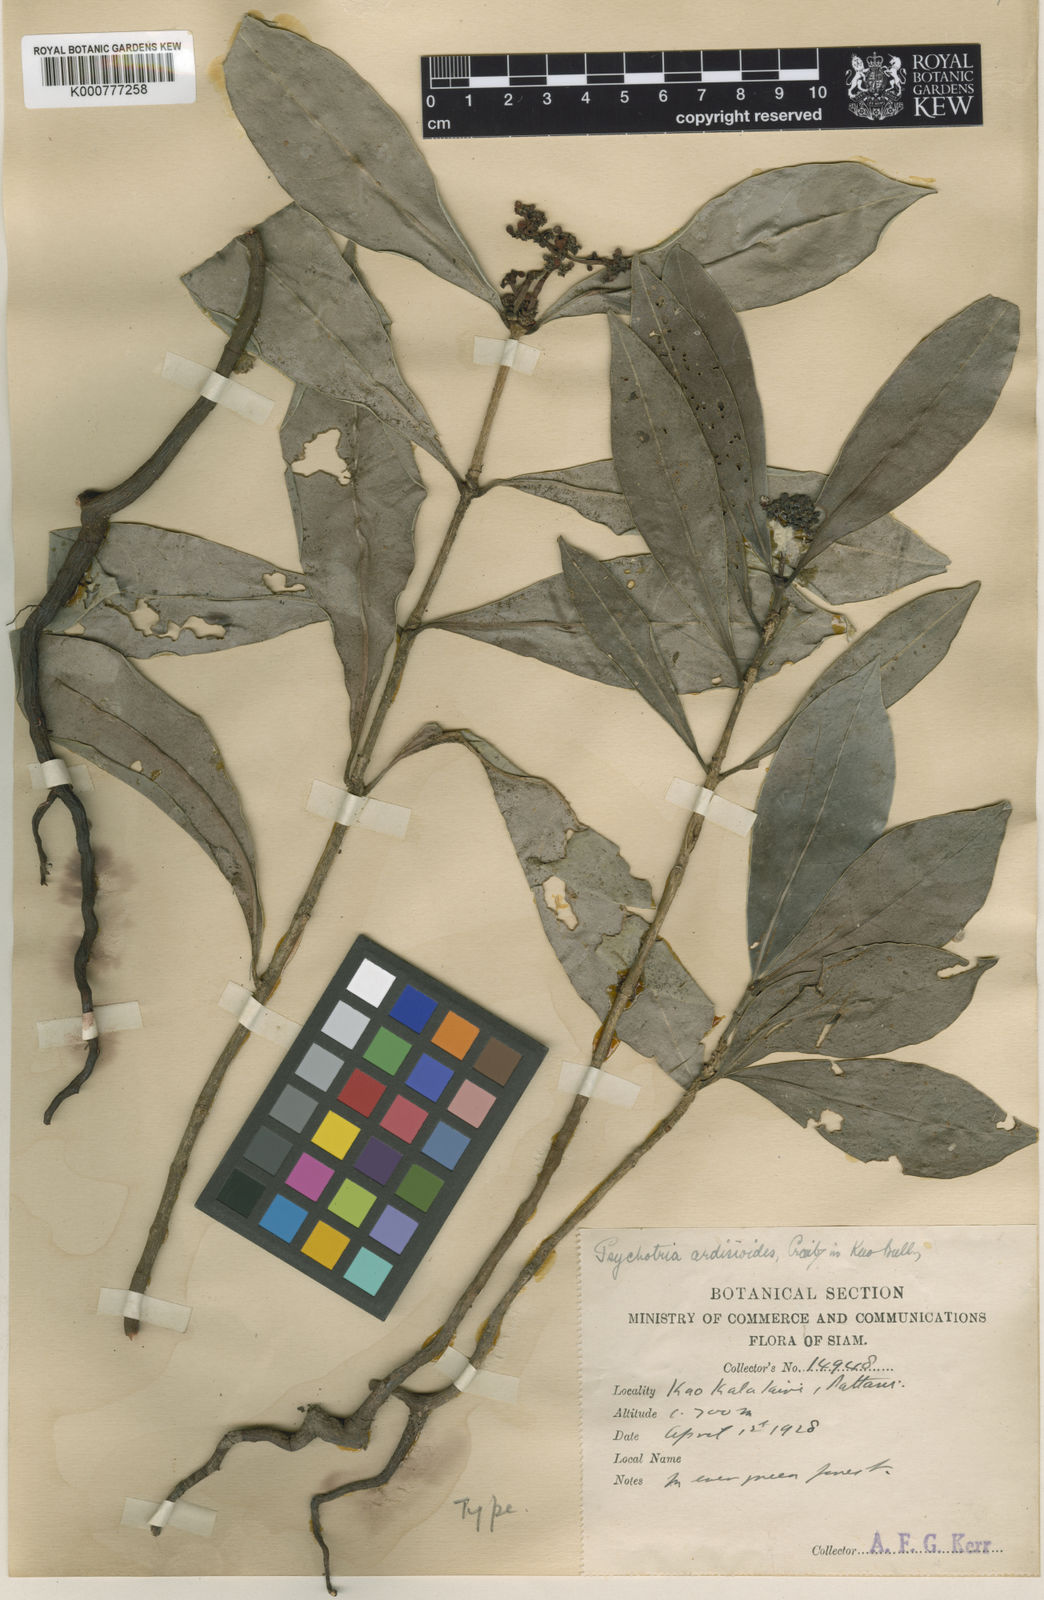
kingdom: Plantae
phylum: Tracheophyta
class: Magnoliopsida
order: Gentianales
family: Rubiaceae
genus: Psychotria
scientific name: Psychotria ardisioides
